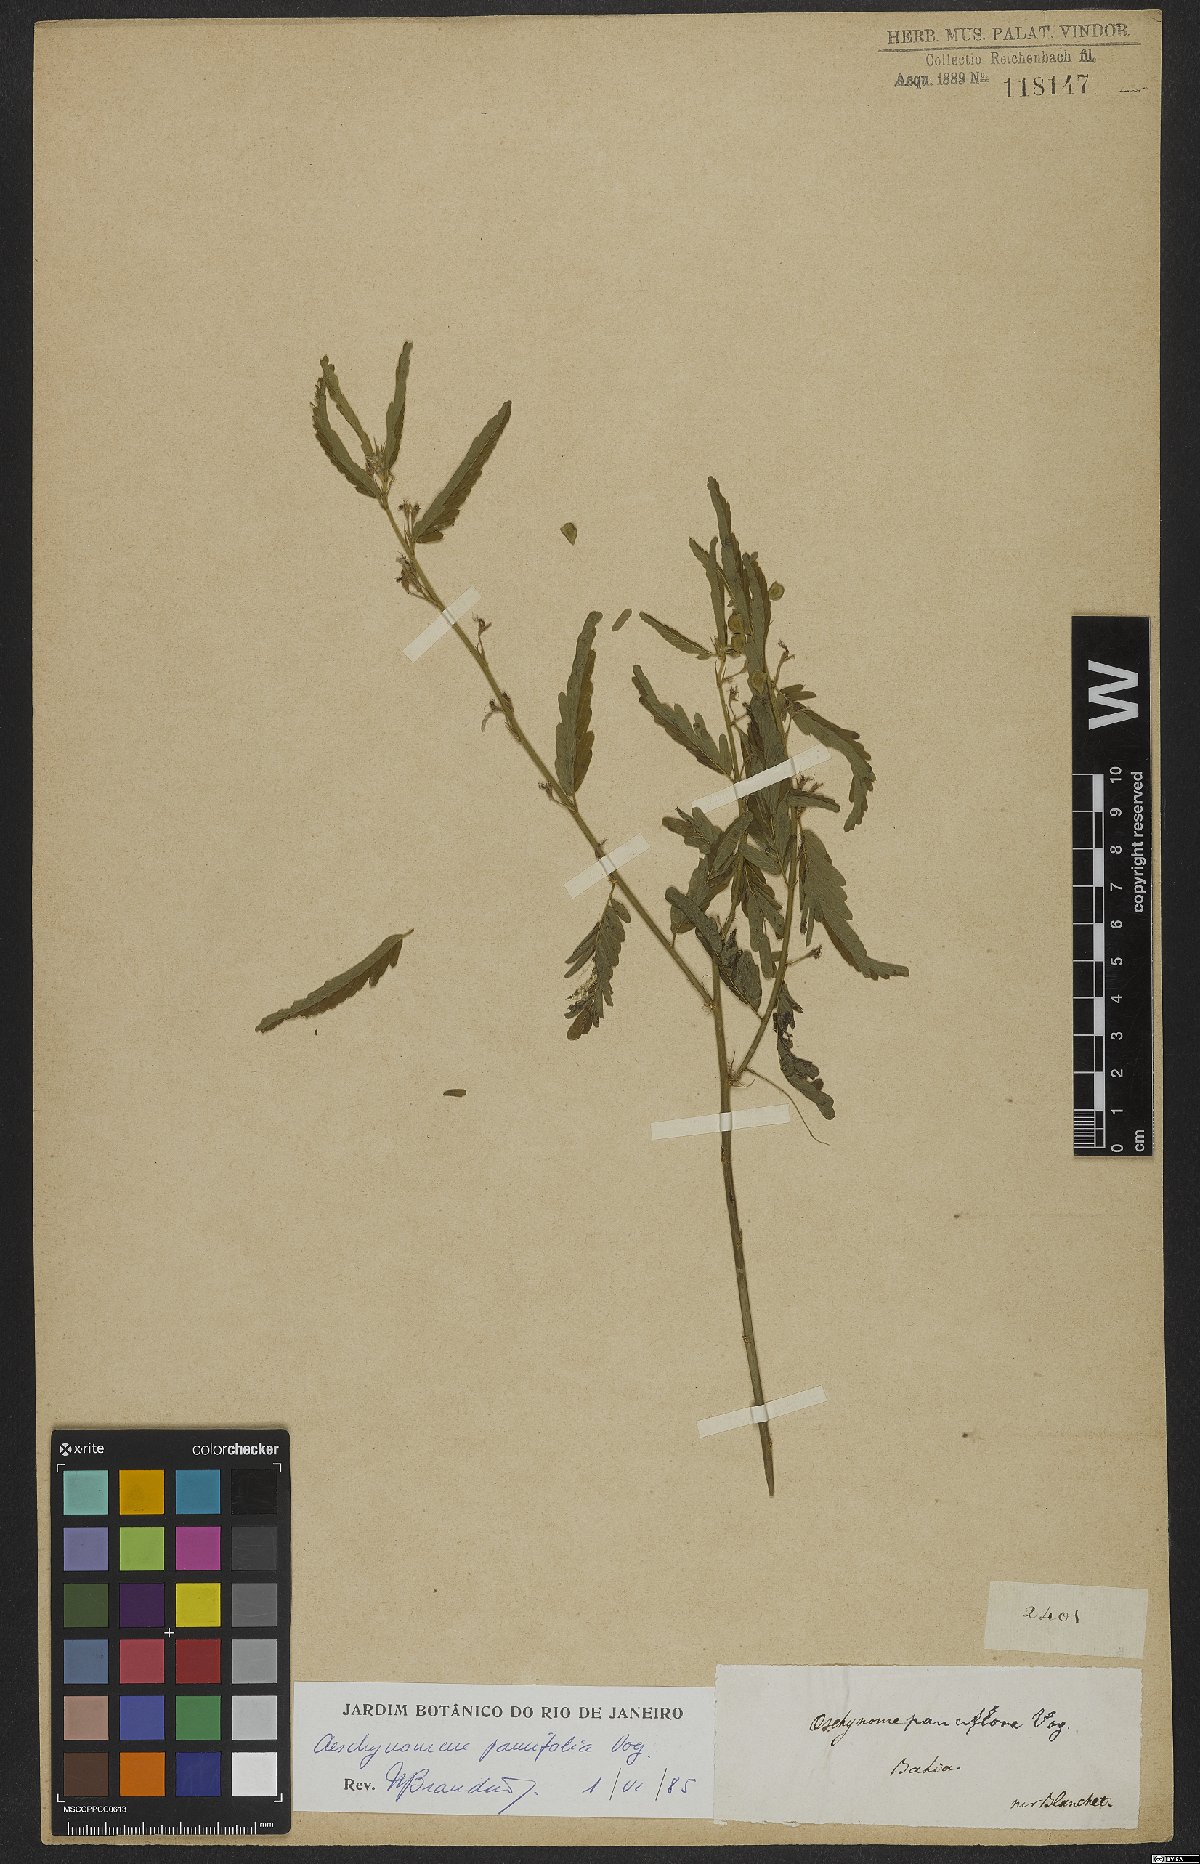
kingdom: Plantae
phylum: Tracheophyta
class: Magnoliopsida
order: Fabales
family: Fabaceae
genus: Ctenodon
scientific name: Ctenodon paucifolius
